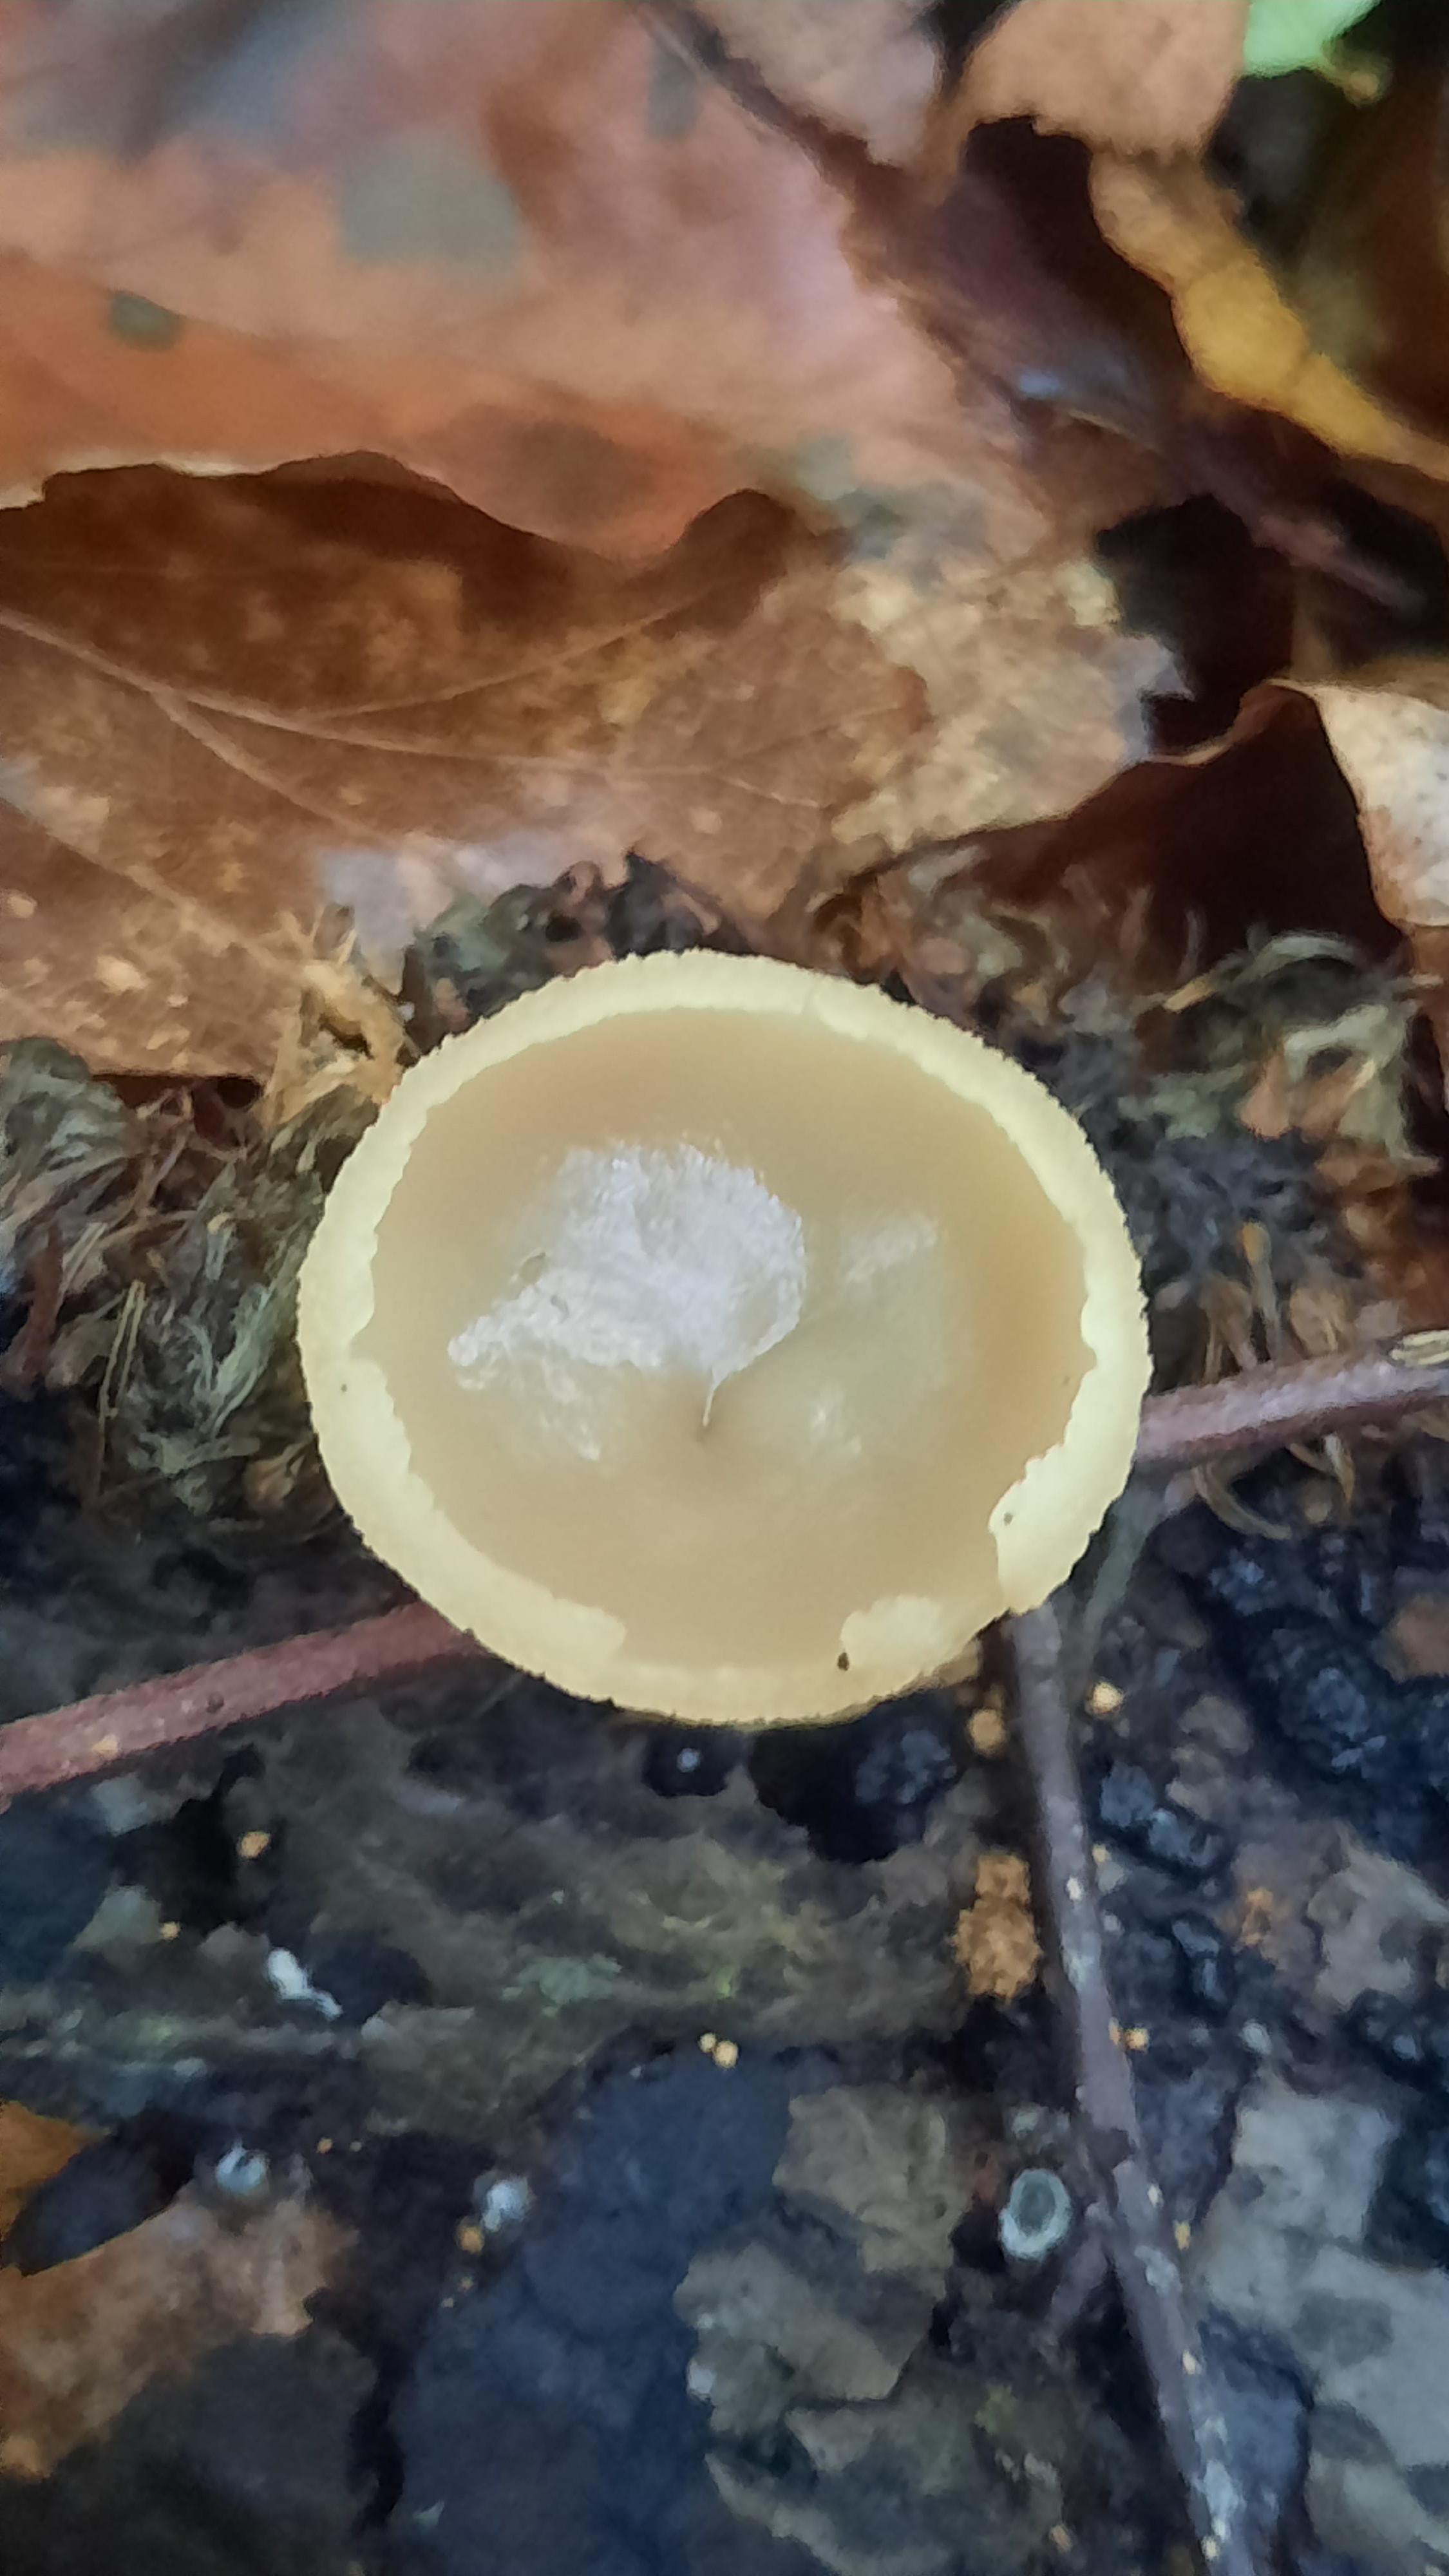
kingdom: Fungi
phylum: Ascomycota
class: Pezizomycetes
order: Pezizales
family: Pezizaceae
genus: Peziza
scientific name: Peziza
